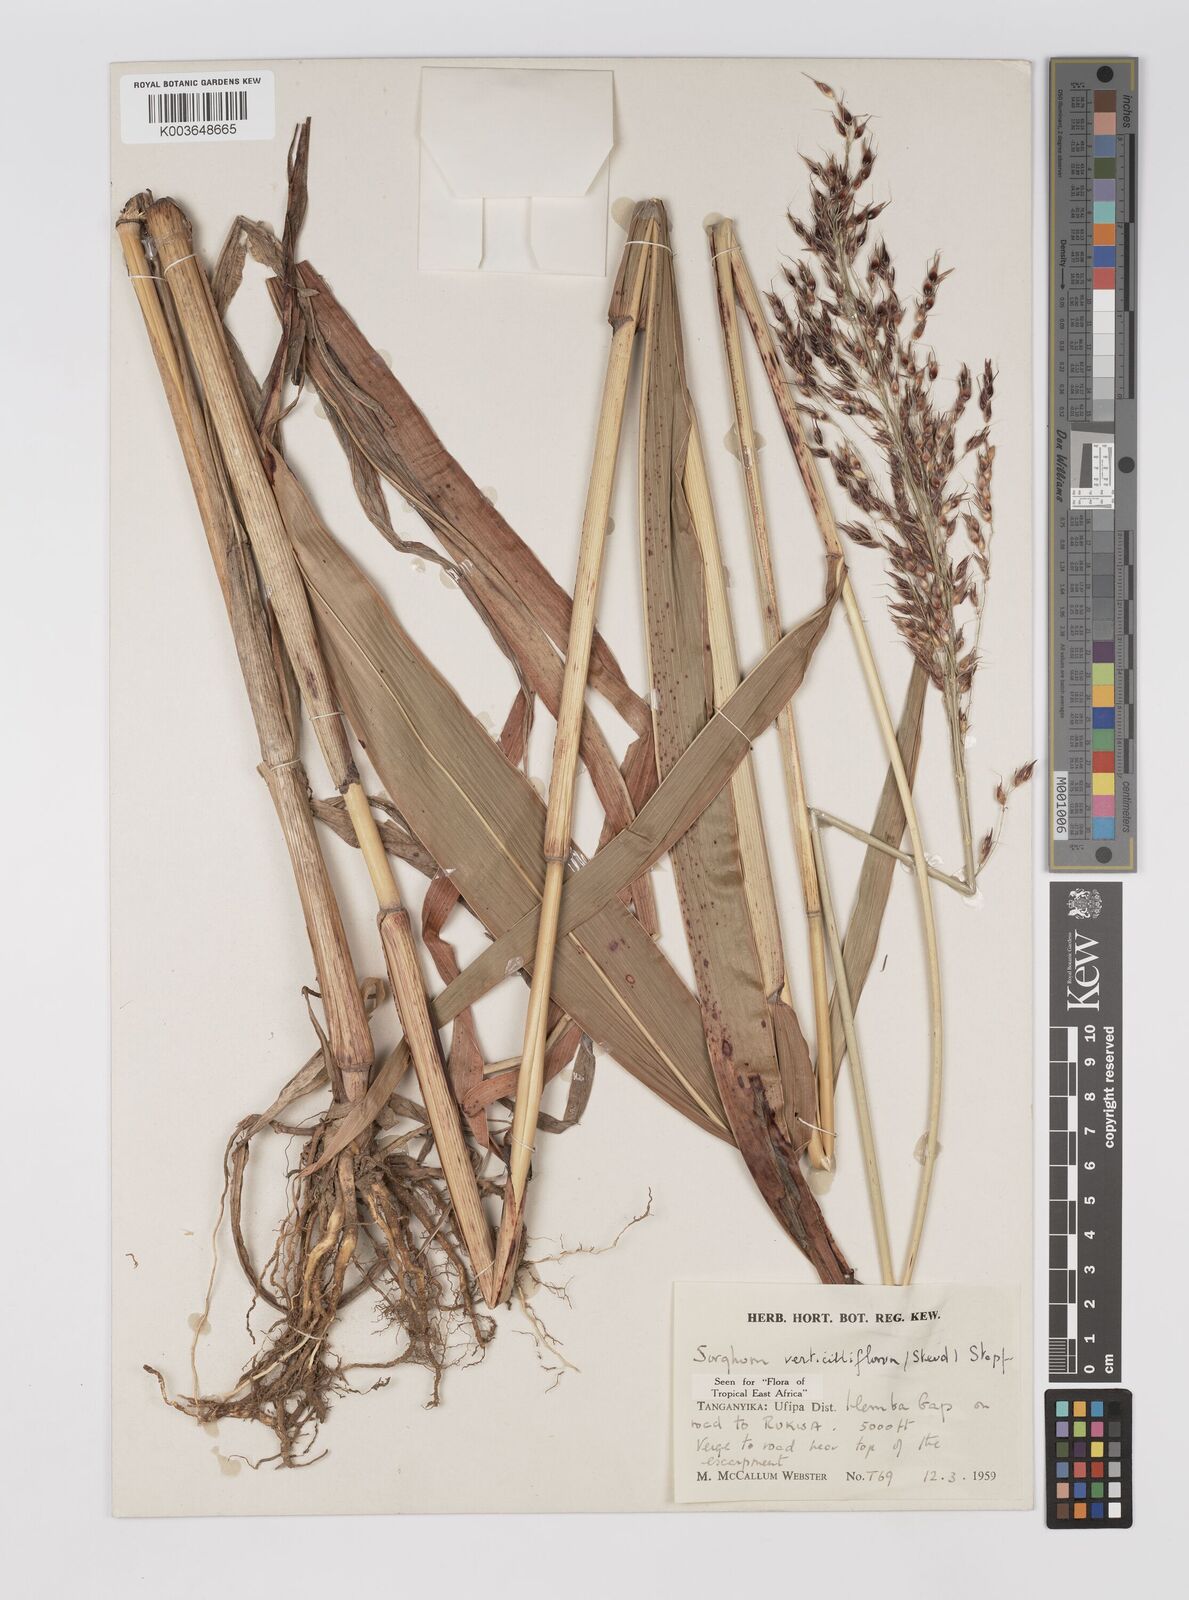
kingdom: Plantae
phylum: Tracheophyta
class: Liliopsida
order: Poales
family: Poaceae
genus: Sorghum
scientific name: Sorghum arundinaceum
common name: Sorghum
